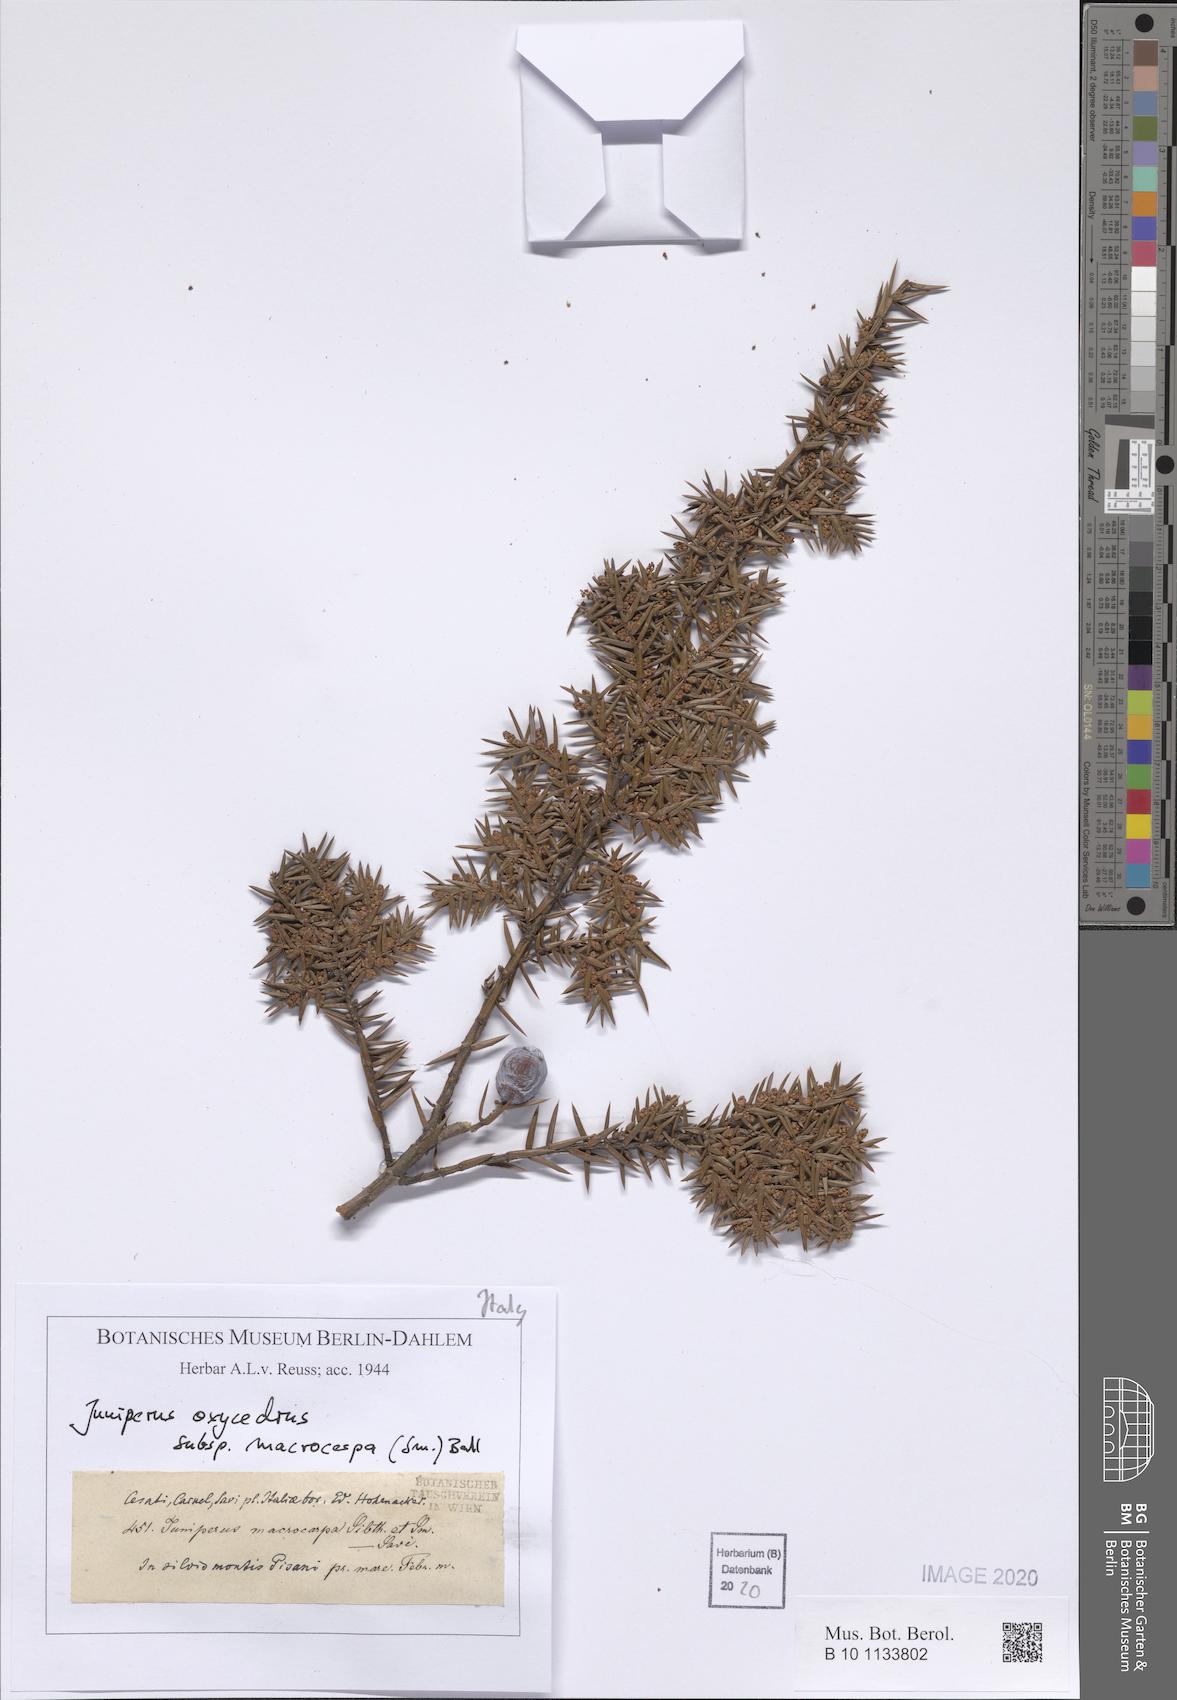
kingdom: Plantae
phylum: Tracheophyta
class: Pinopsida
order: Pinales
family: Cupressaceae
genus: Juniperus
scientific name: Juniperus oxycedrus
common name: Prickly juniper
